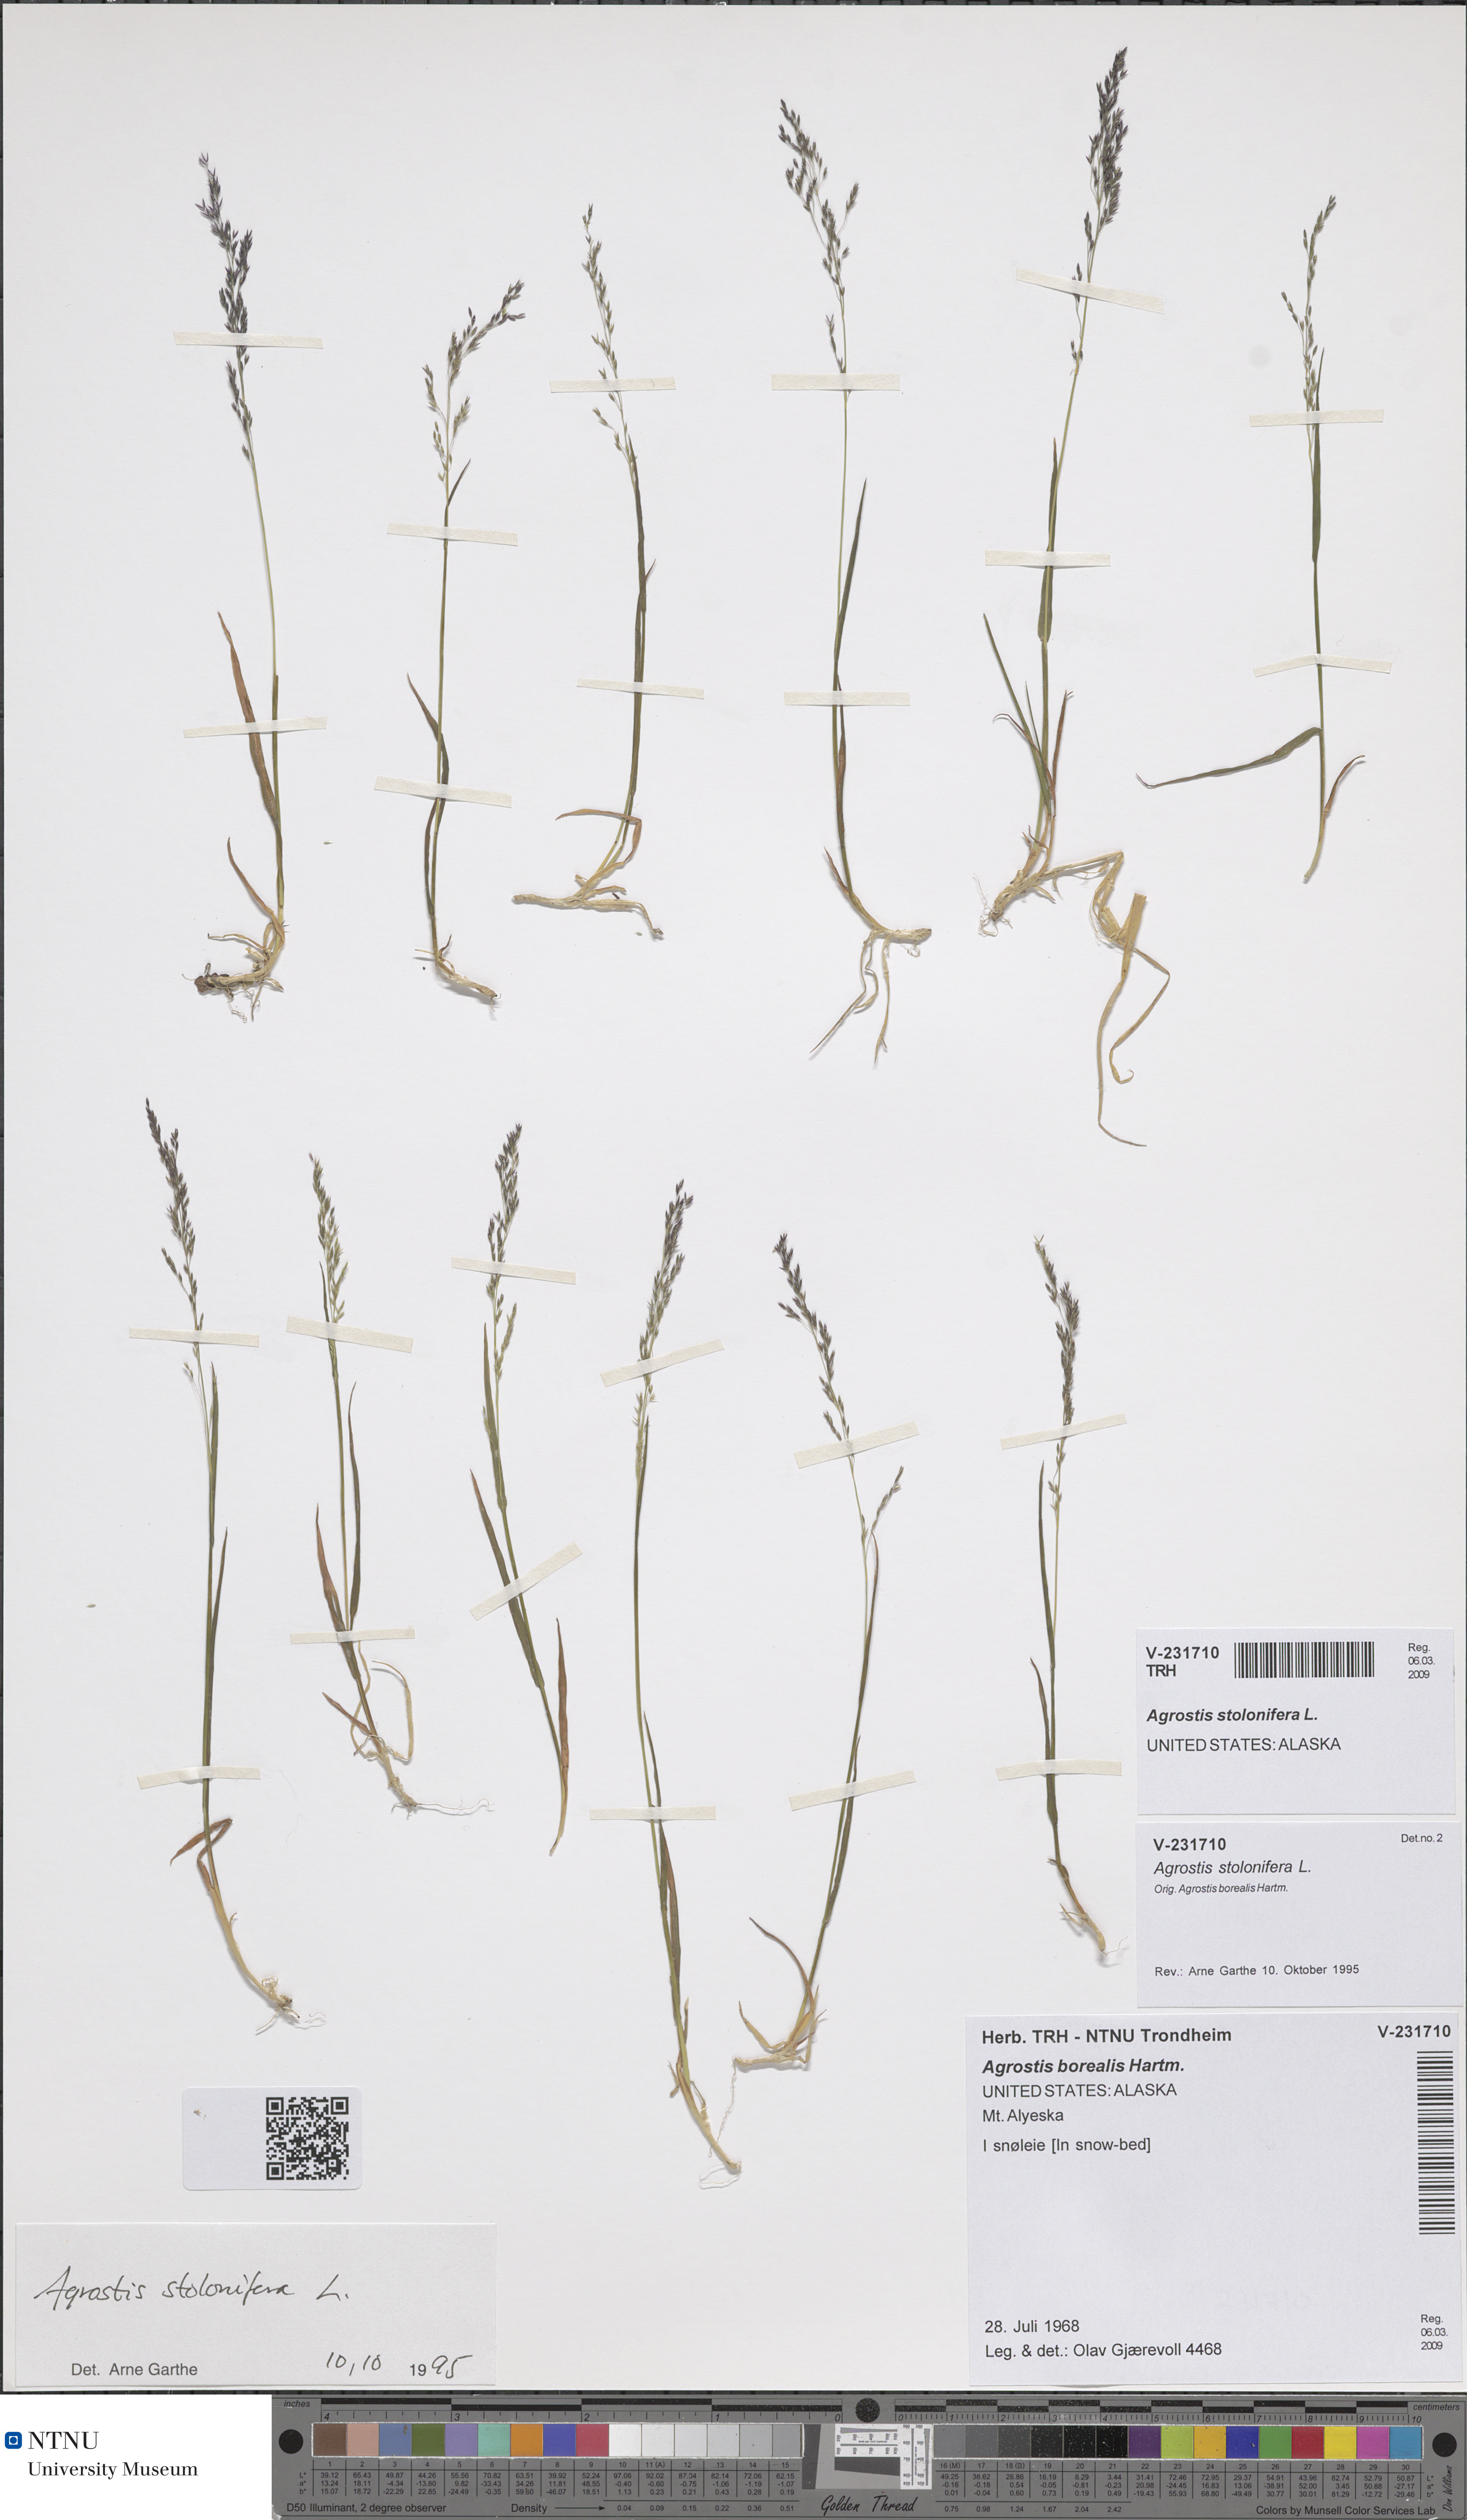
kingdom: Plantae
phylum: Tracheophyta
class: Liliopsida
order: Poales
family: Poaceae
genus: Agrostis
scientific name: Agrostis stolonifera
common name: Creeping bentgrass
